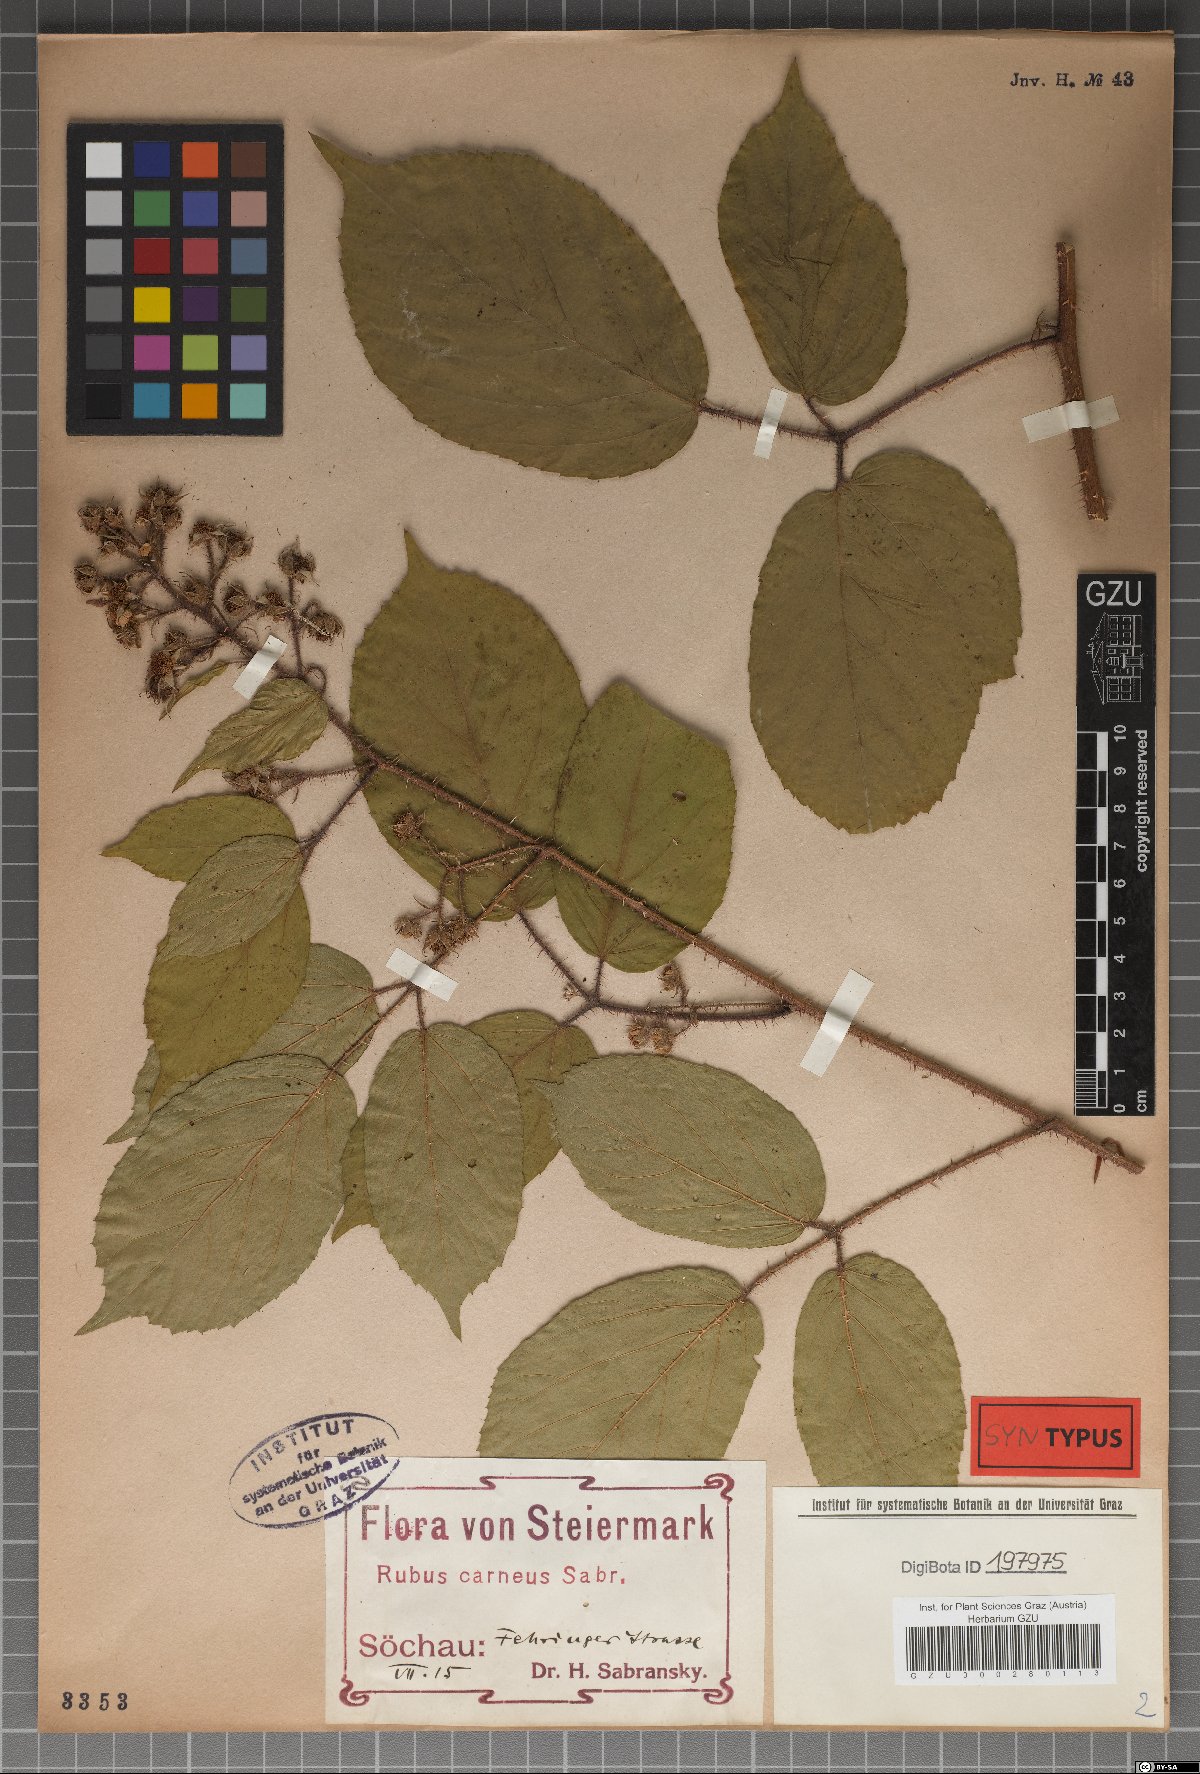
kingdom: Plantae
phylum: Tracheophyta
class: Magnoliopsida
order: Rosales
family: Rosaceae
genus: Rubus
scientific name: Rubus carneus
